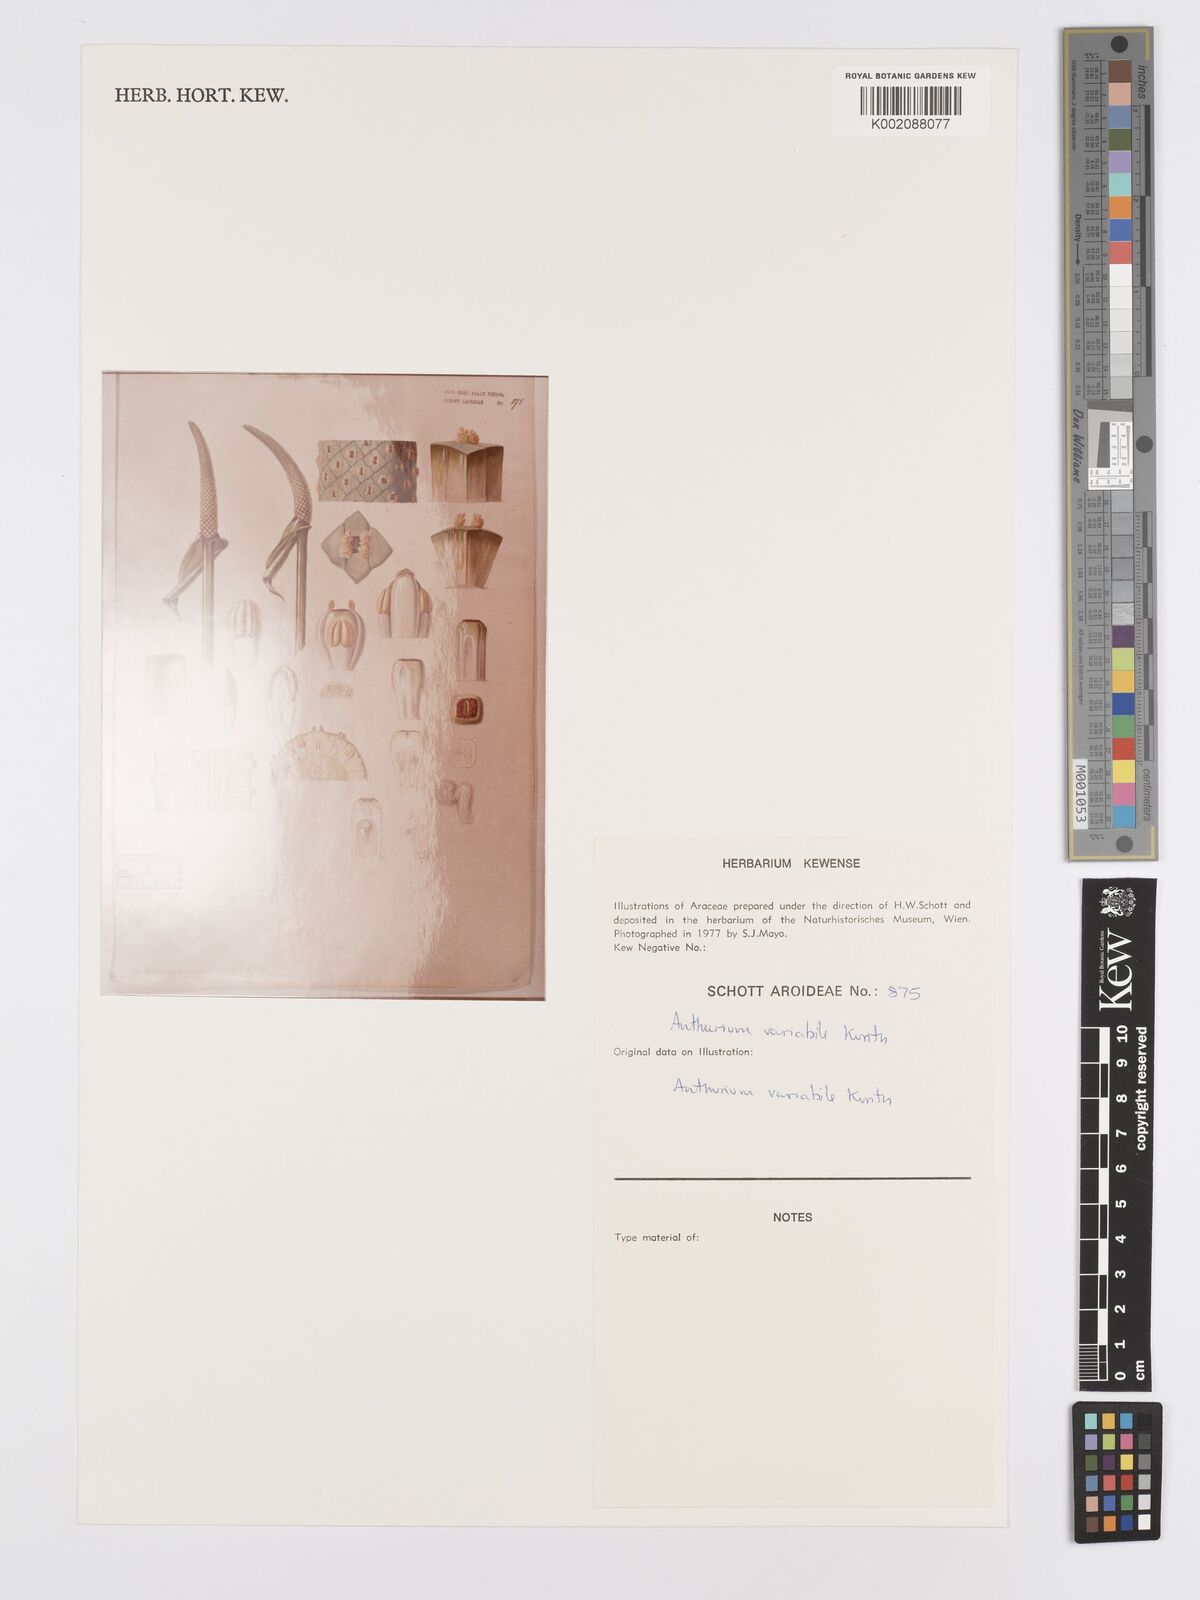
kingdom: Plantae
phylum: Tracheophyta
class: Liliopsida
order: Alismatales
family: Araceae
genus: Anthurium
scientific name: Anthurium pentaphyllum
